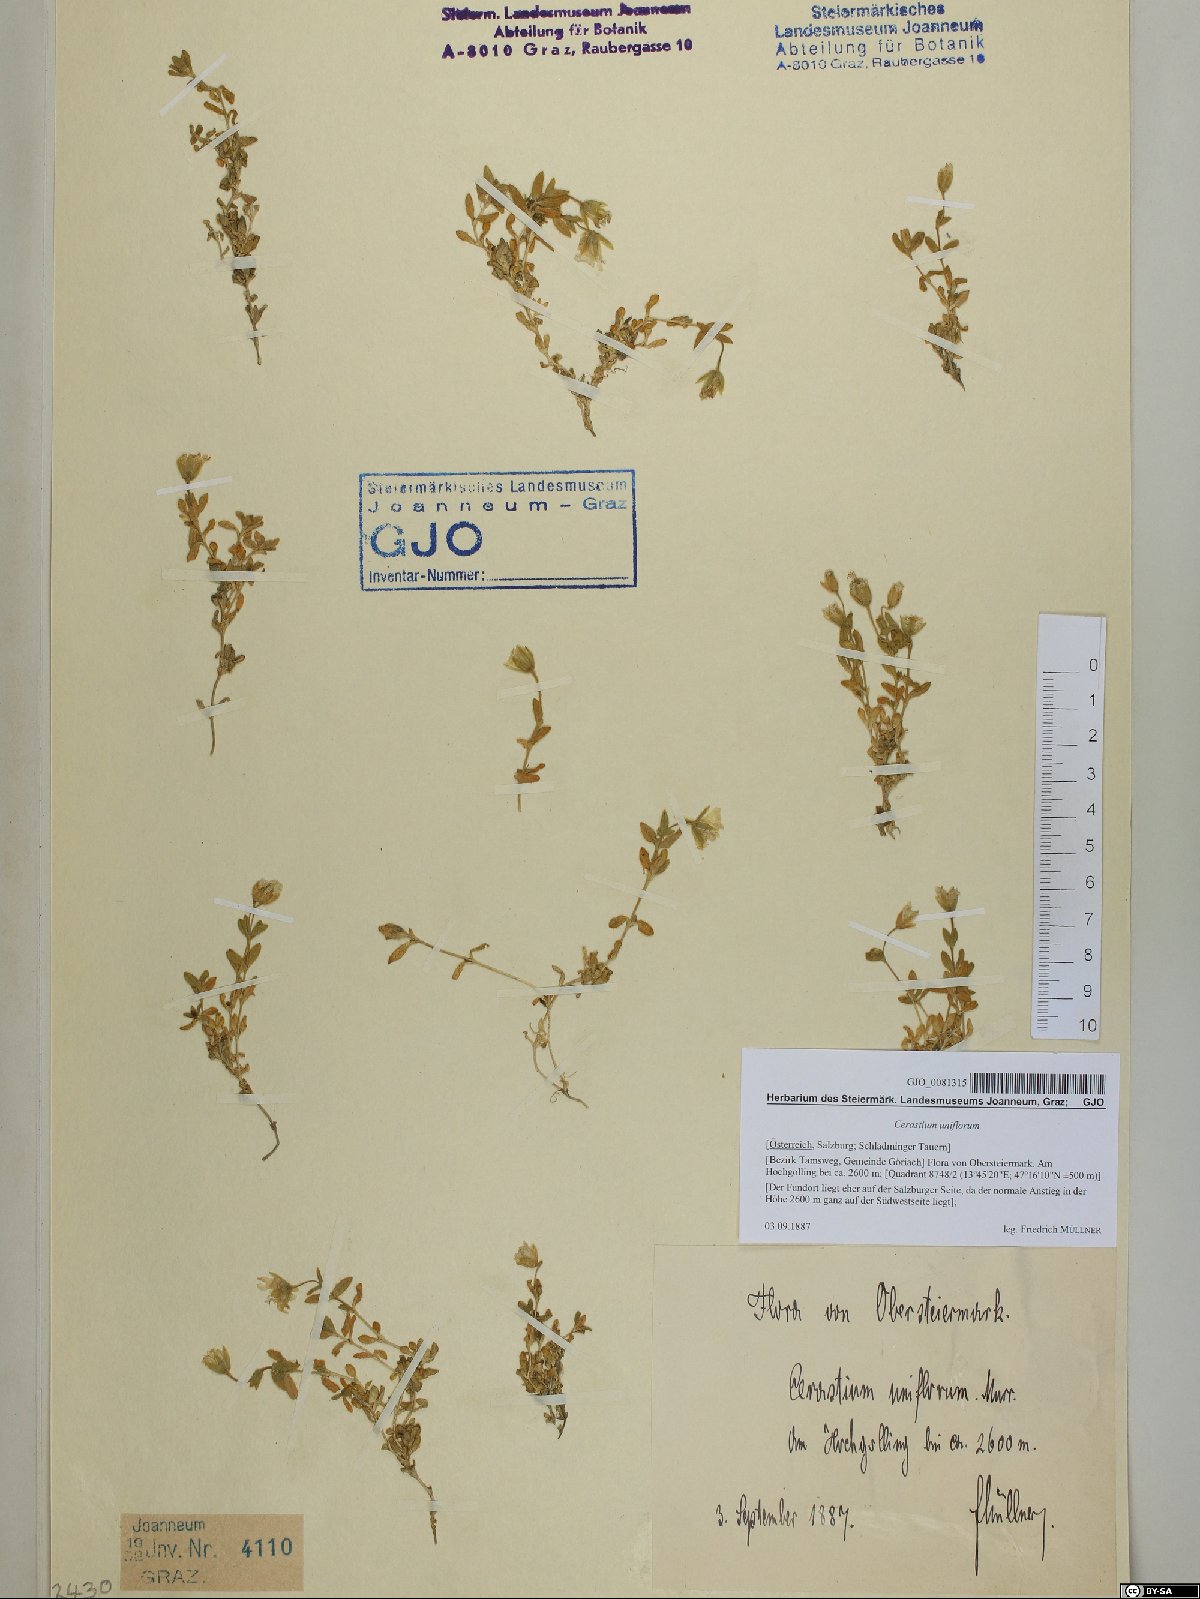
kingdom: Plantae
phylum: Tracheophyta
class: Magnoliopsida
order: Caryophyllales
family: Caryophyllaceae
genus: Cerastium
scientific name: Cerastium uniflorum
